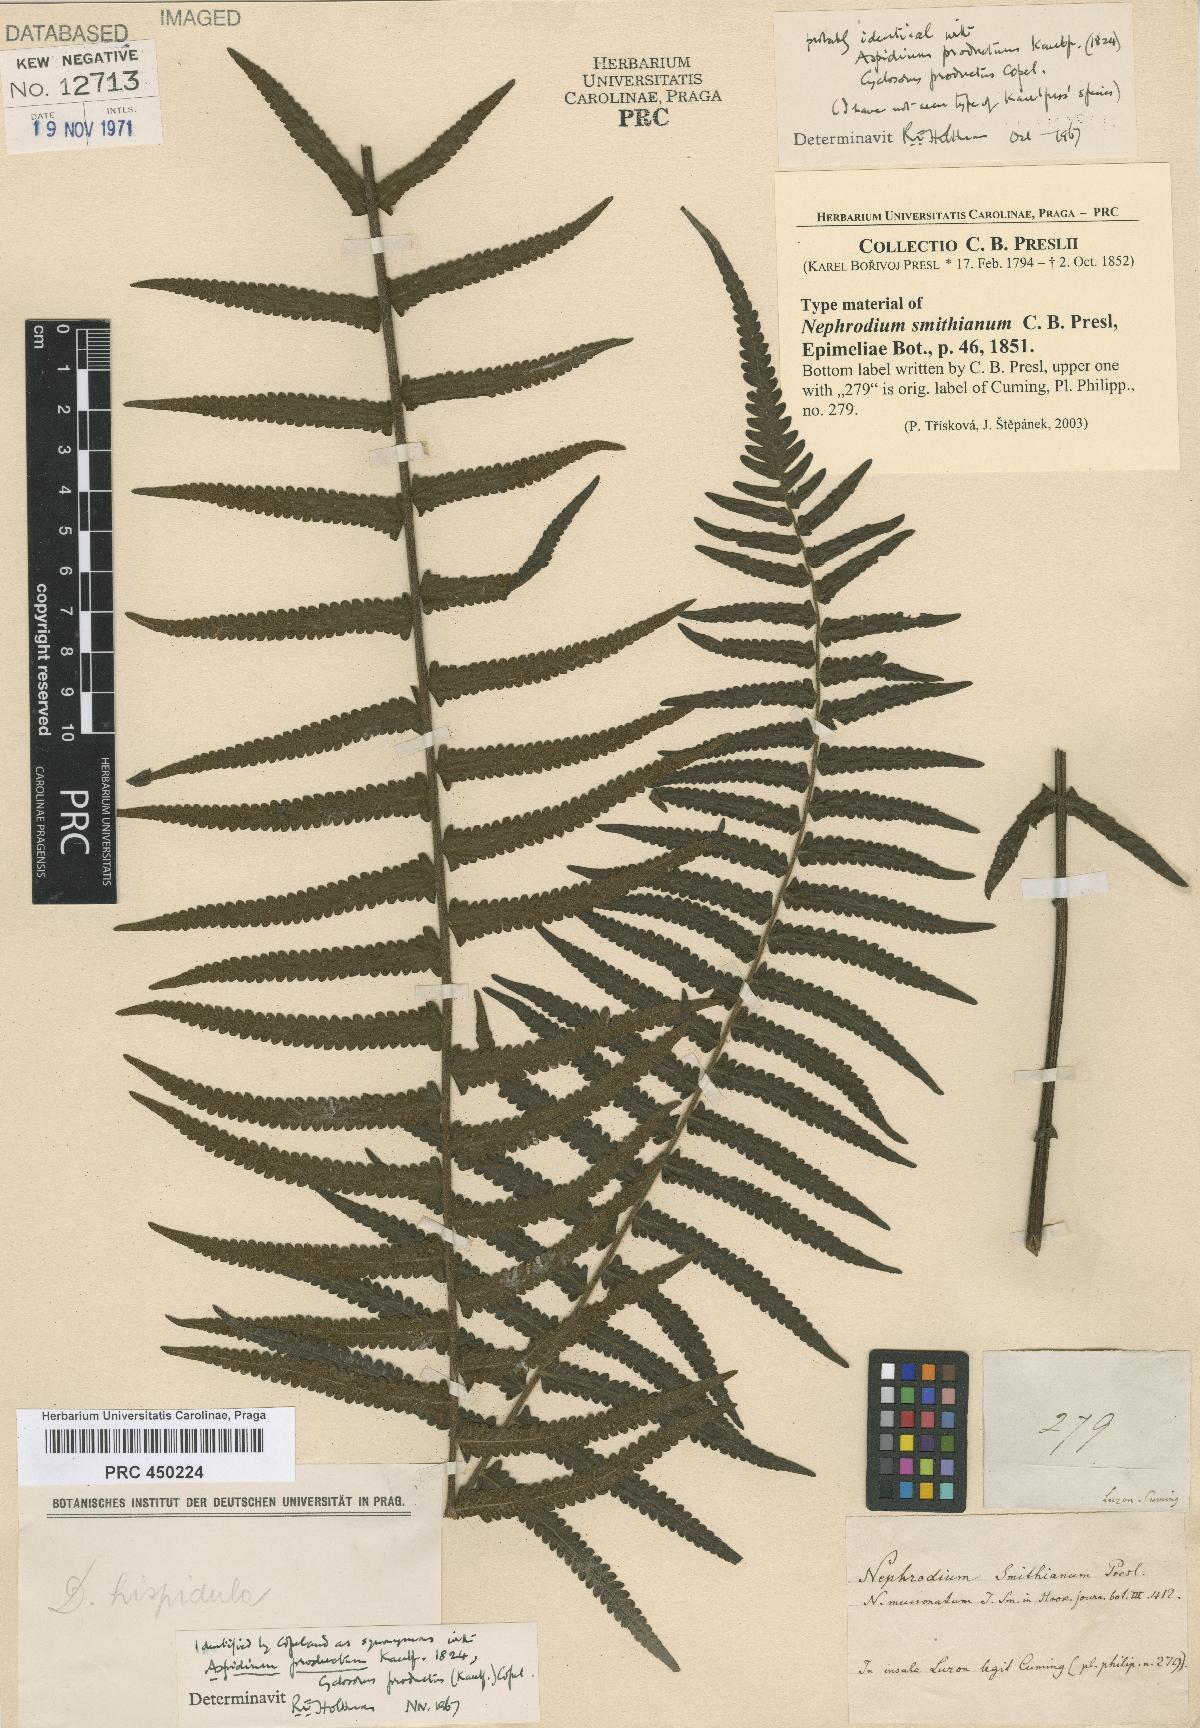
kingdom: Plantae
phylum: Tracheophyta
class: Polypodiopsida
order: Polypodiales
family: Thelypteridaceae
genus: Sphaerostephanos
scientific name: Sphaerostephanos acrostichoides
